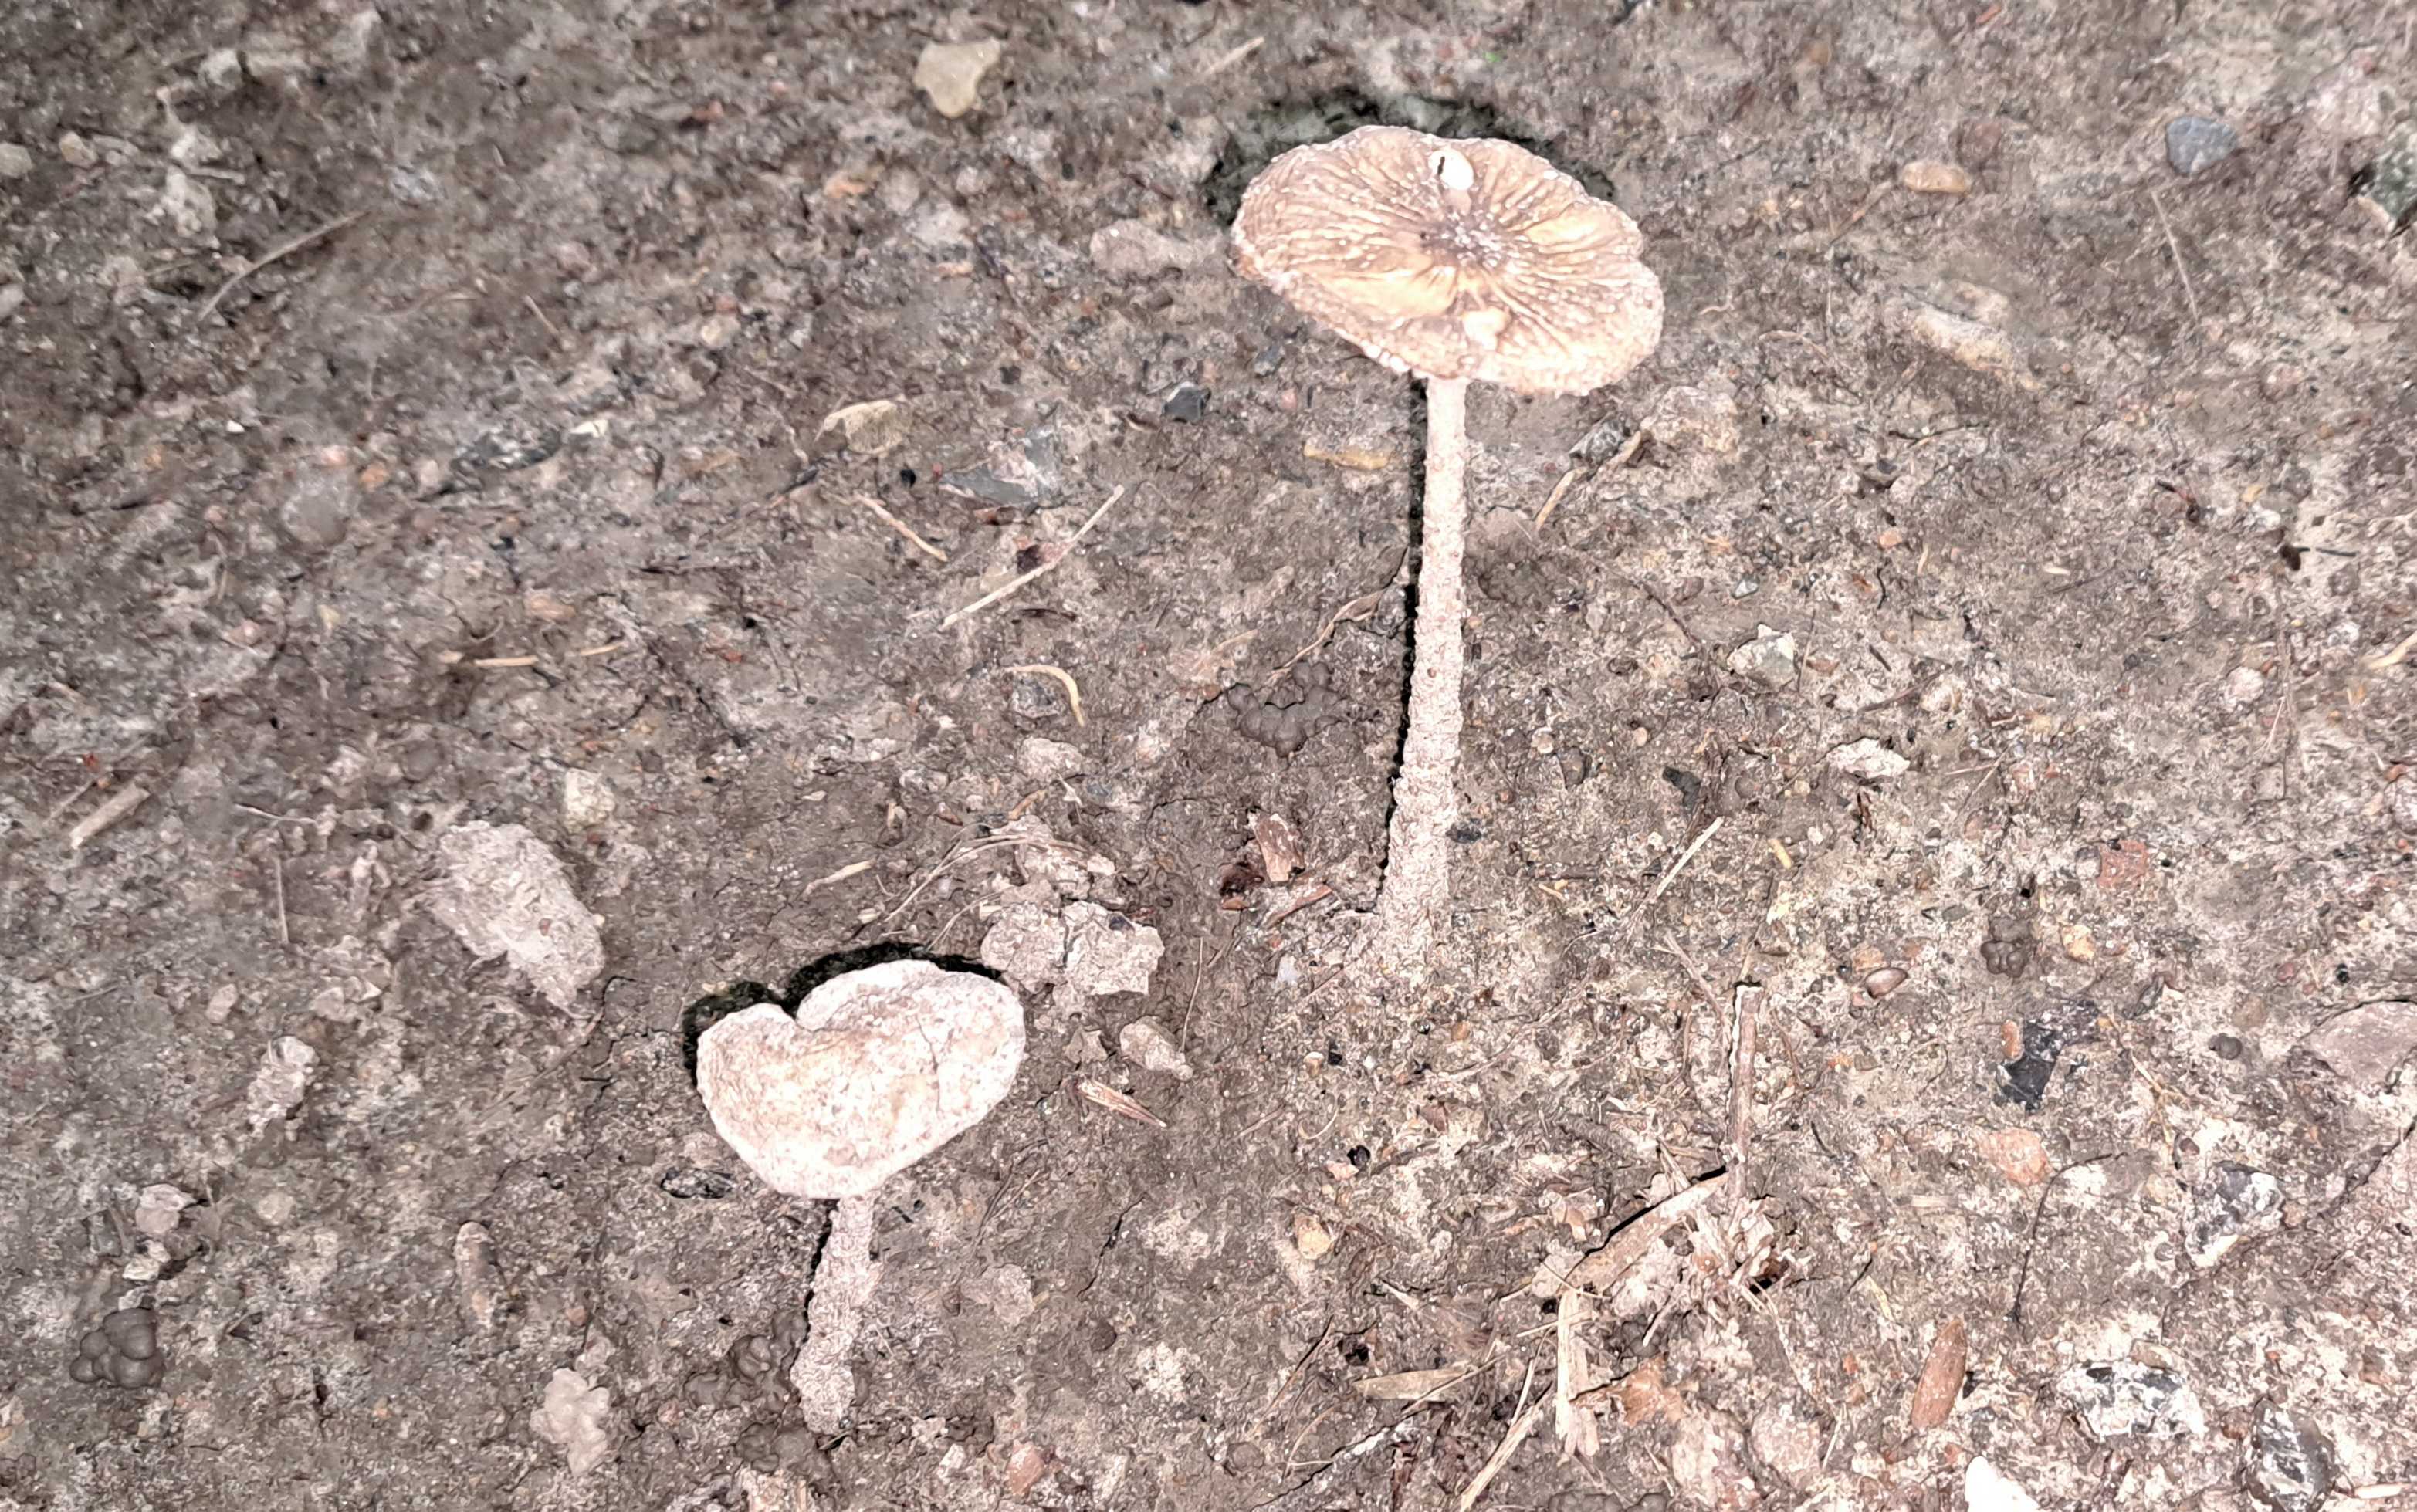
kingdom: Fungi
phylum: Basidiomycota
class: Agaricomycetes
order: Agaricales
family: Physalacriaceae
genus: Hymenopellis
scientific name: Hymenopellis radicata
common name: almindelig pælerodshat
